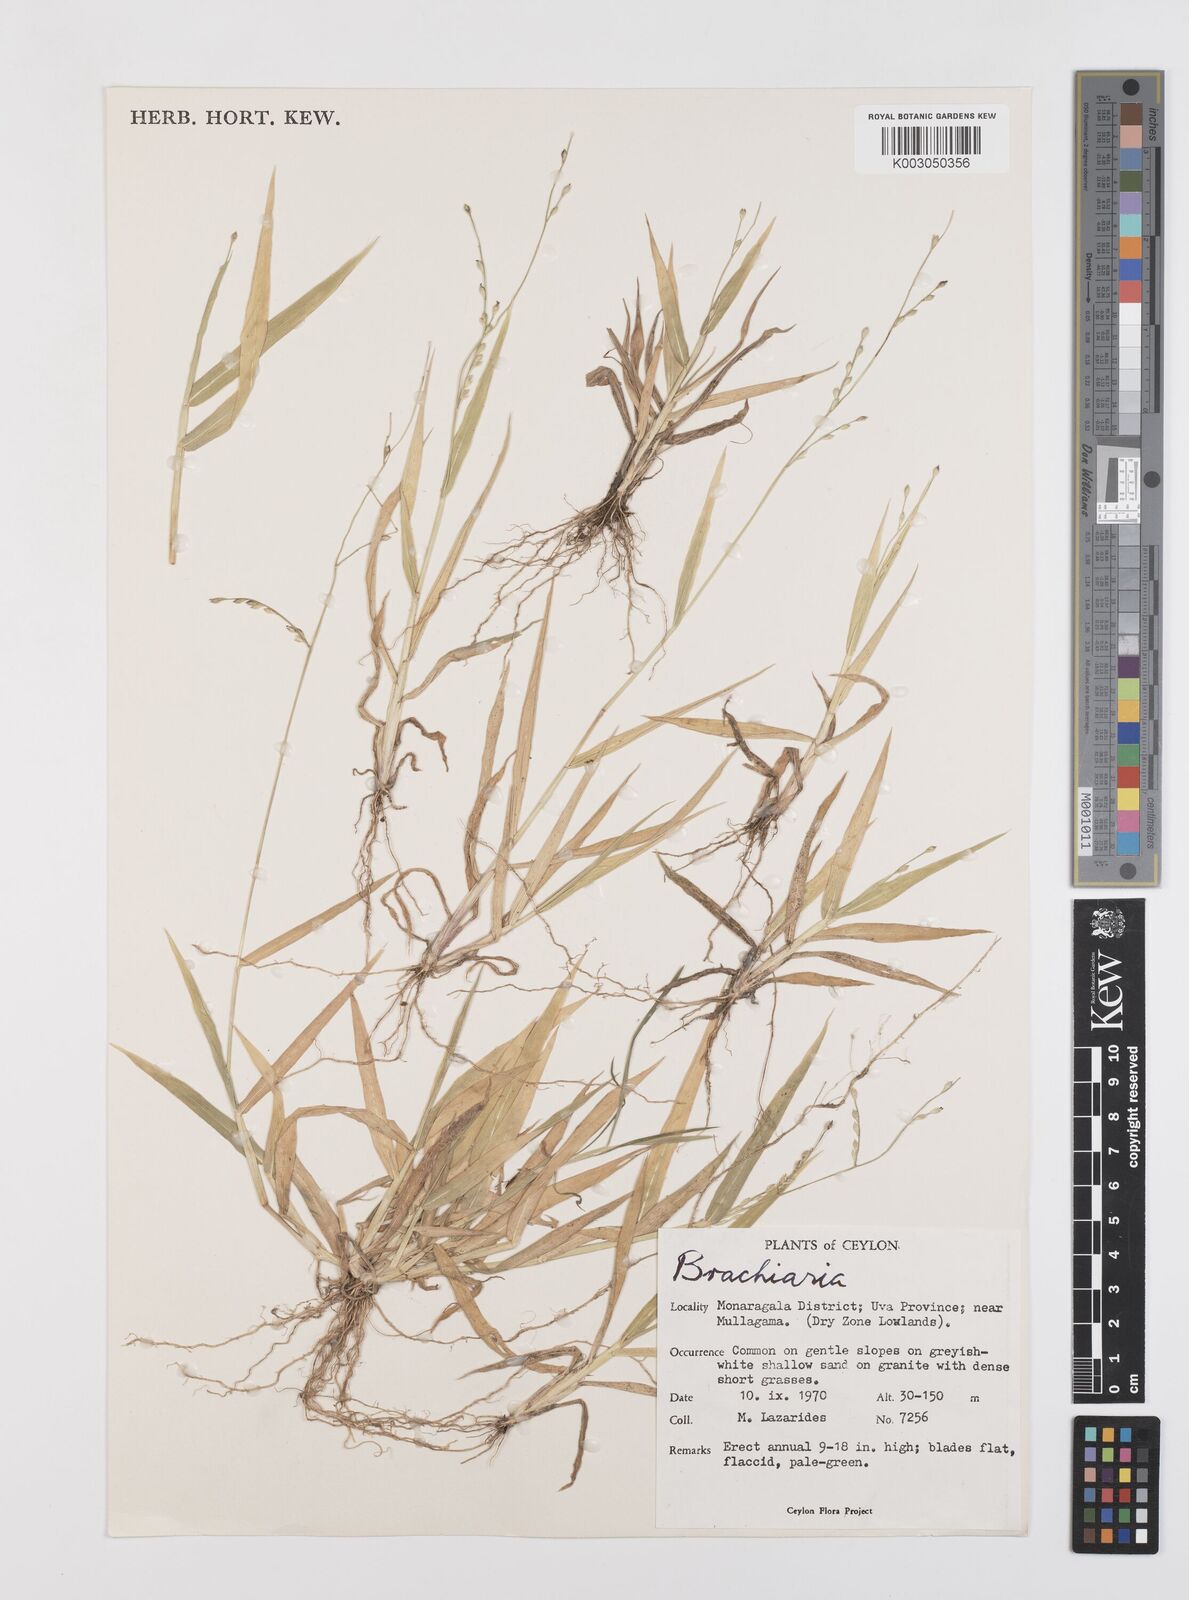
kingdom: Plantae
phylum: Tracheophyta
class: Liliopsida
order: Poales
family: Poaceae
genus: Urochloa
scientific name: Urochloa ramosa
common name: Browntop millet
